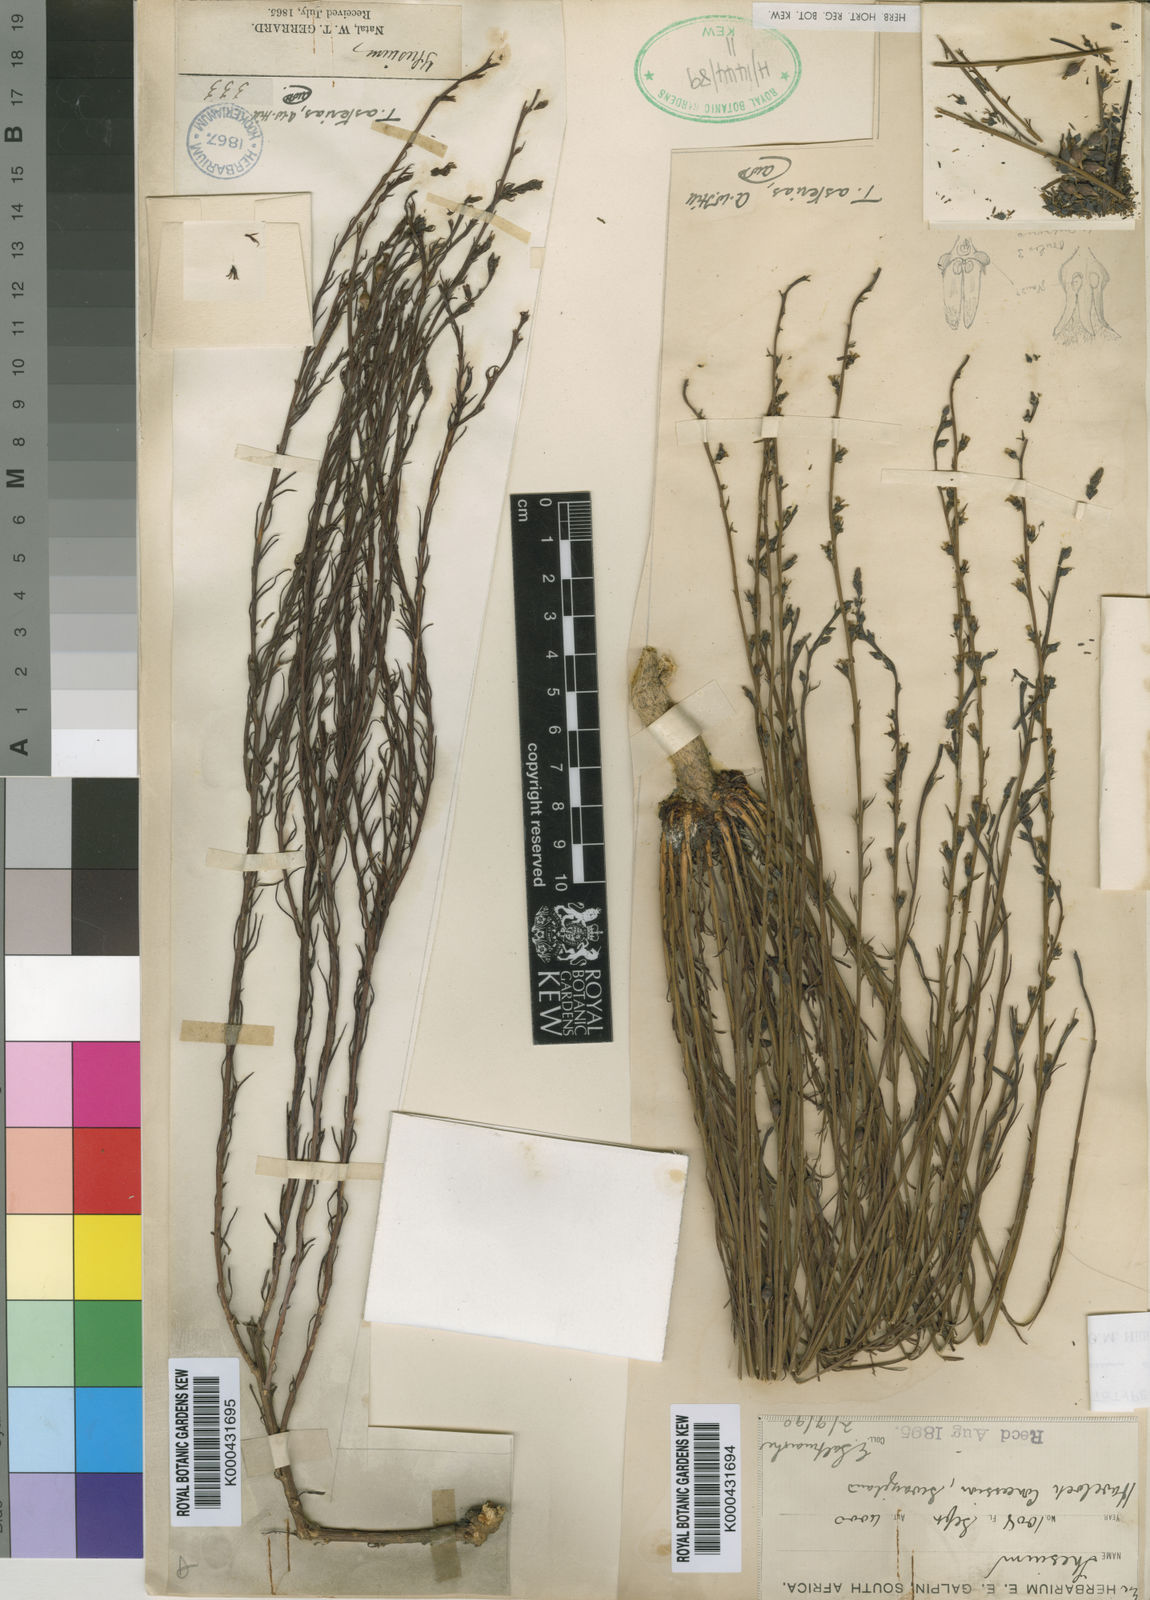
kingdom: Plantae
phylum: Tracheophyta
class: Magnoliopsida
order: Santalales
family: Thesiaceae
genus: Thesium
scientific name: Thesium asterias
